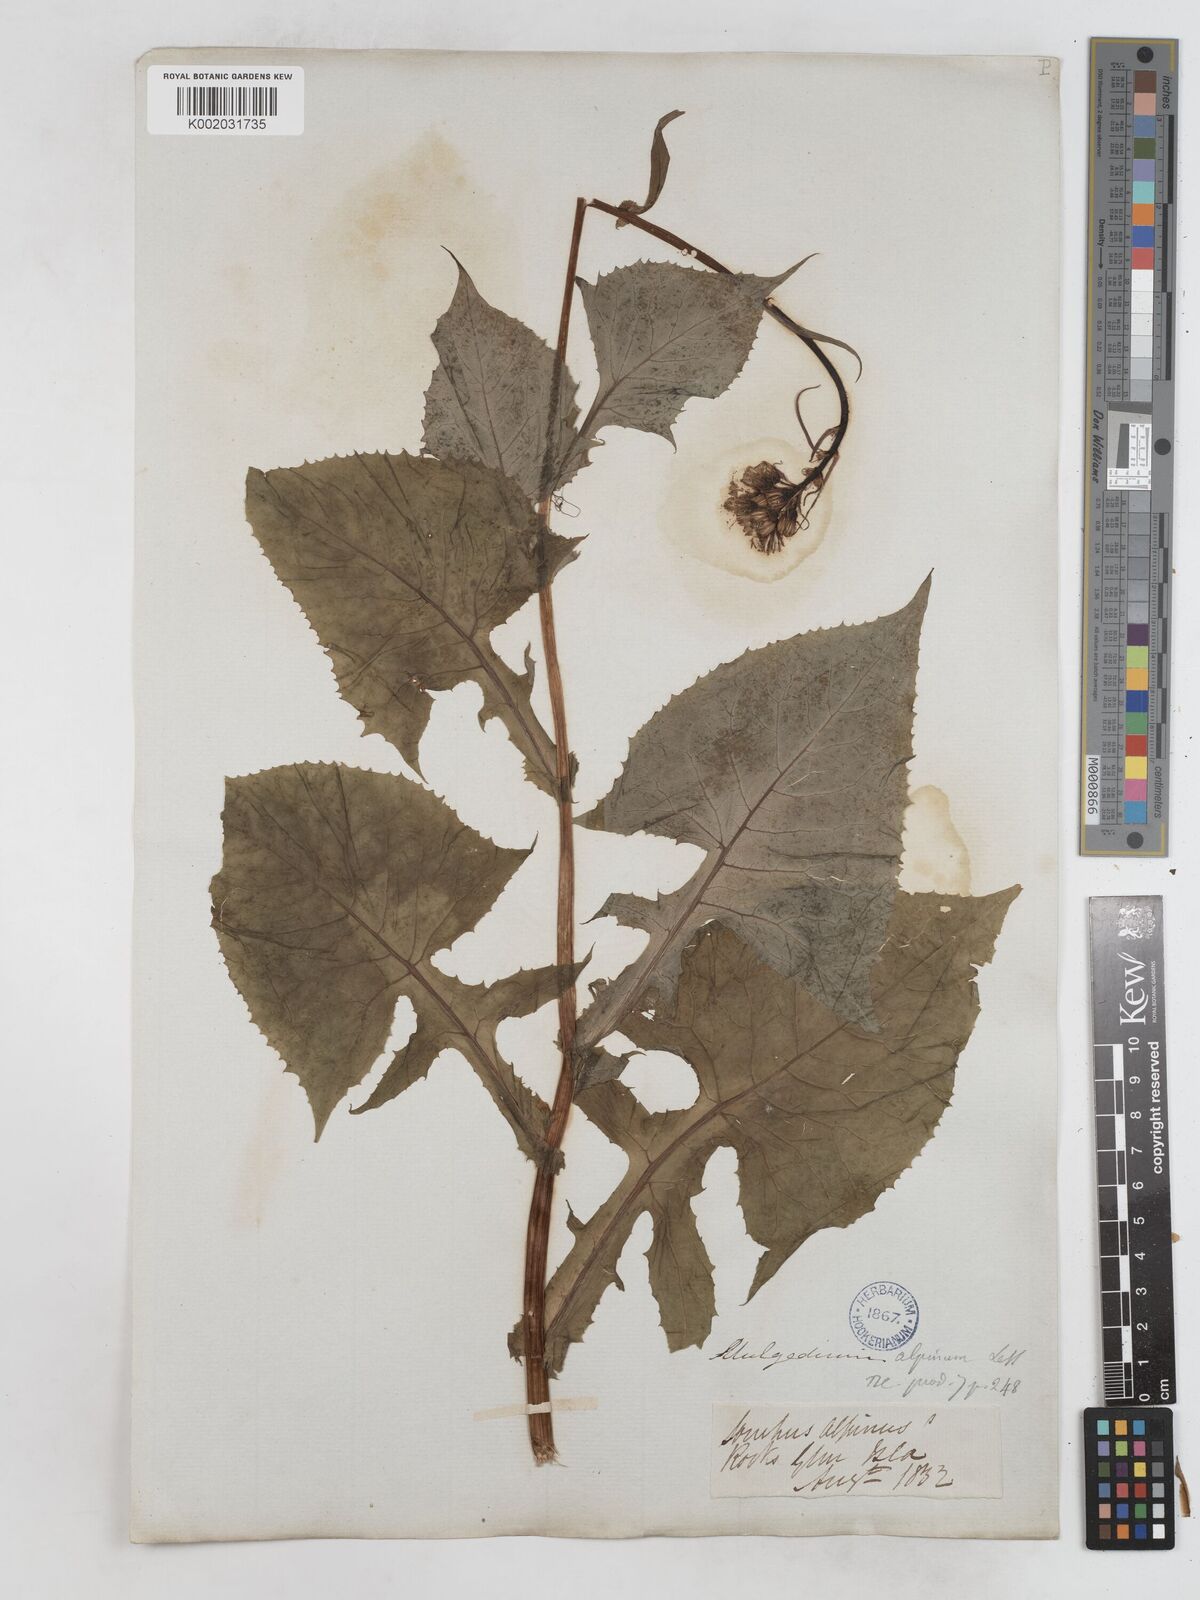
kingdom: Plantae
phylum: Tracheophyta
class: Magnoliopsida
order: Asterales
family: Asteraceae
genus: Cicerbita
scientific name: Cicerbita alpina
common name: Alpine blue-sow-thistle
